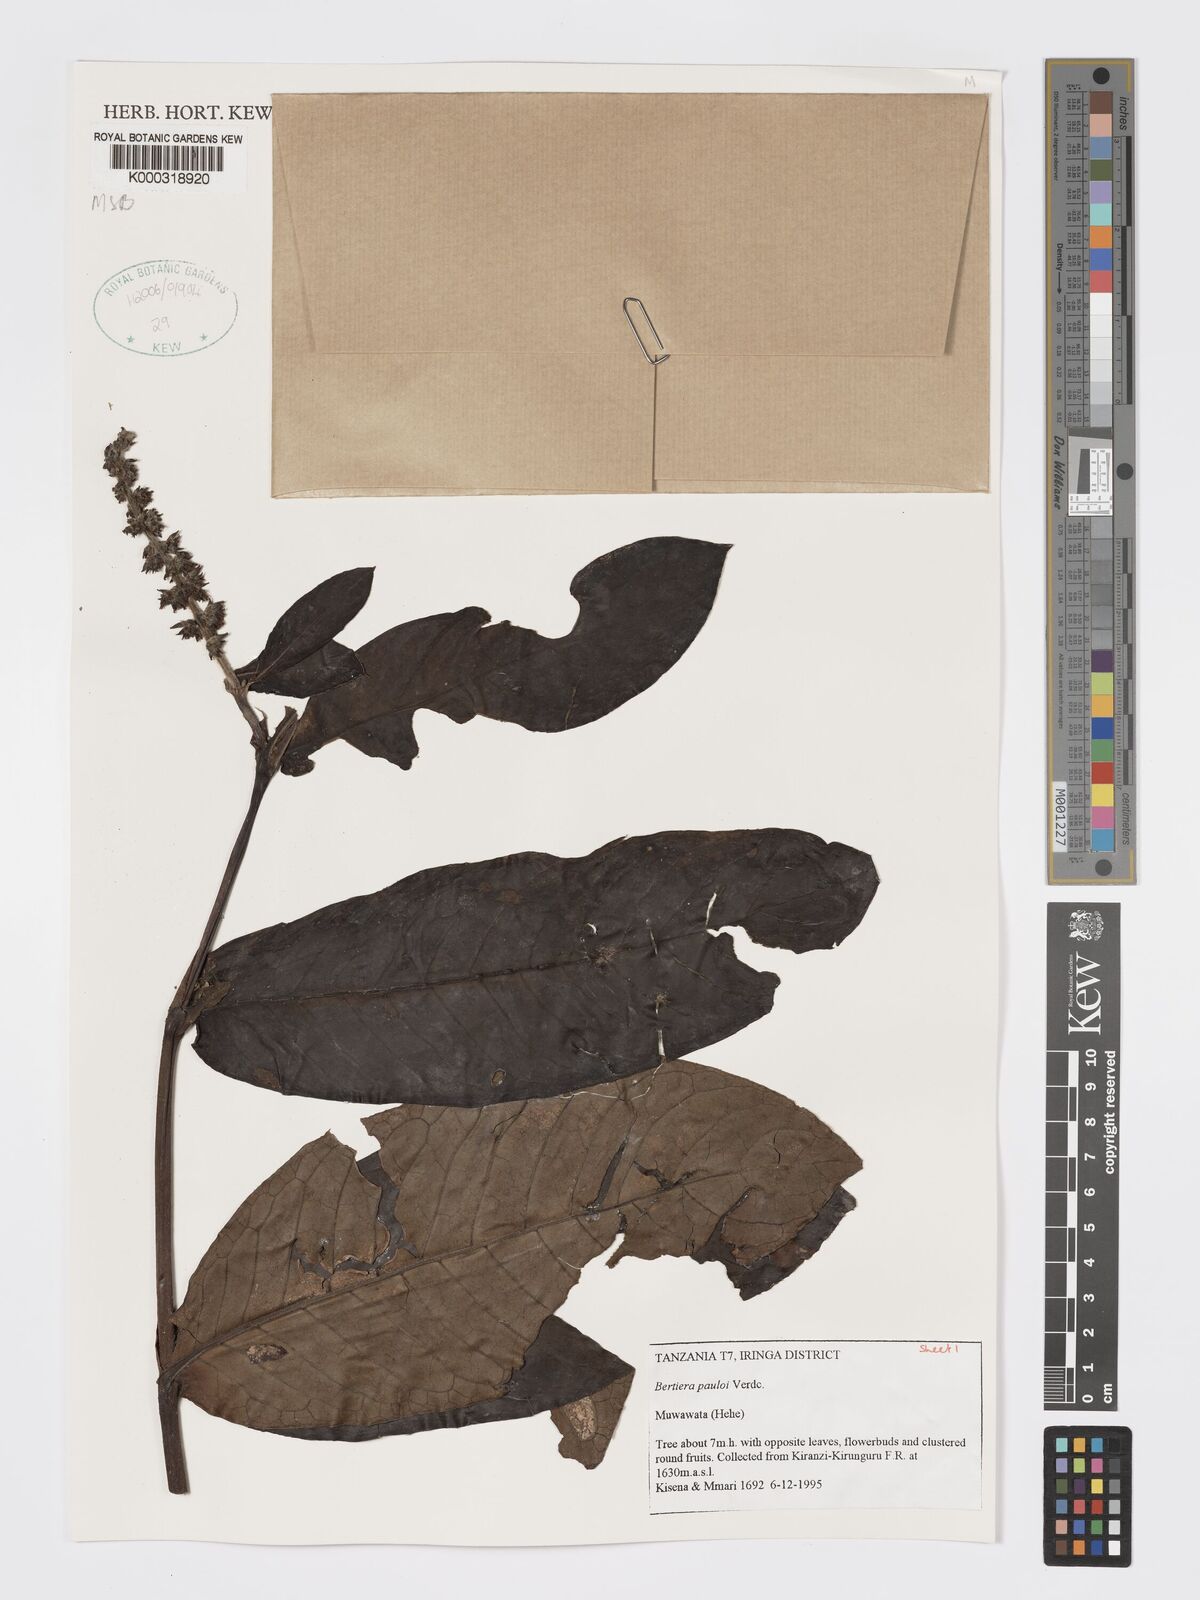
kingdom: Plantae
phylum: Tracheophyta
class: Magnoliopsida
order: Gentianales
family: Rubiaceae
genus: Bertiera
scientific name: Bertiera pauloi
